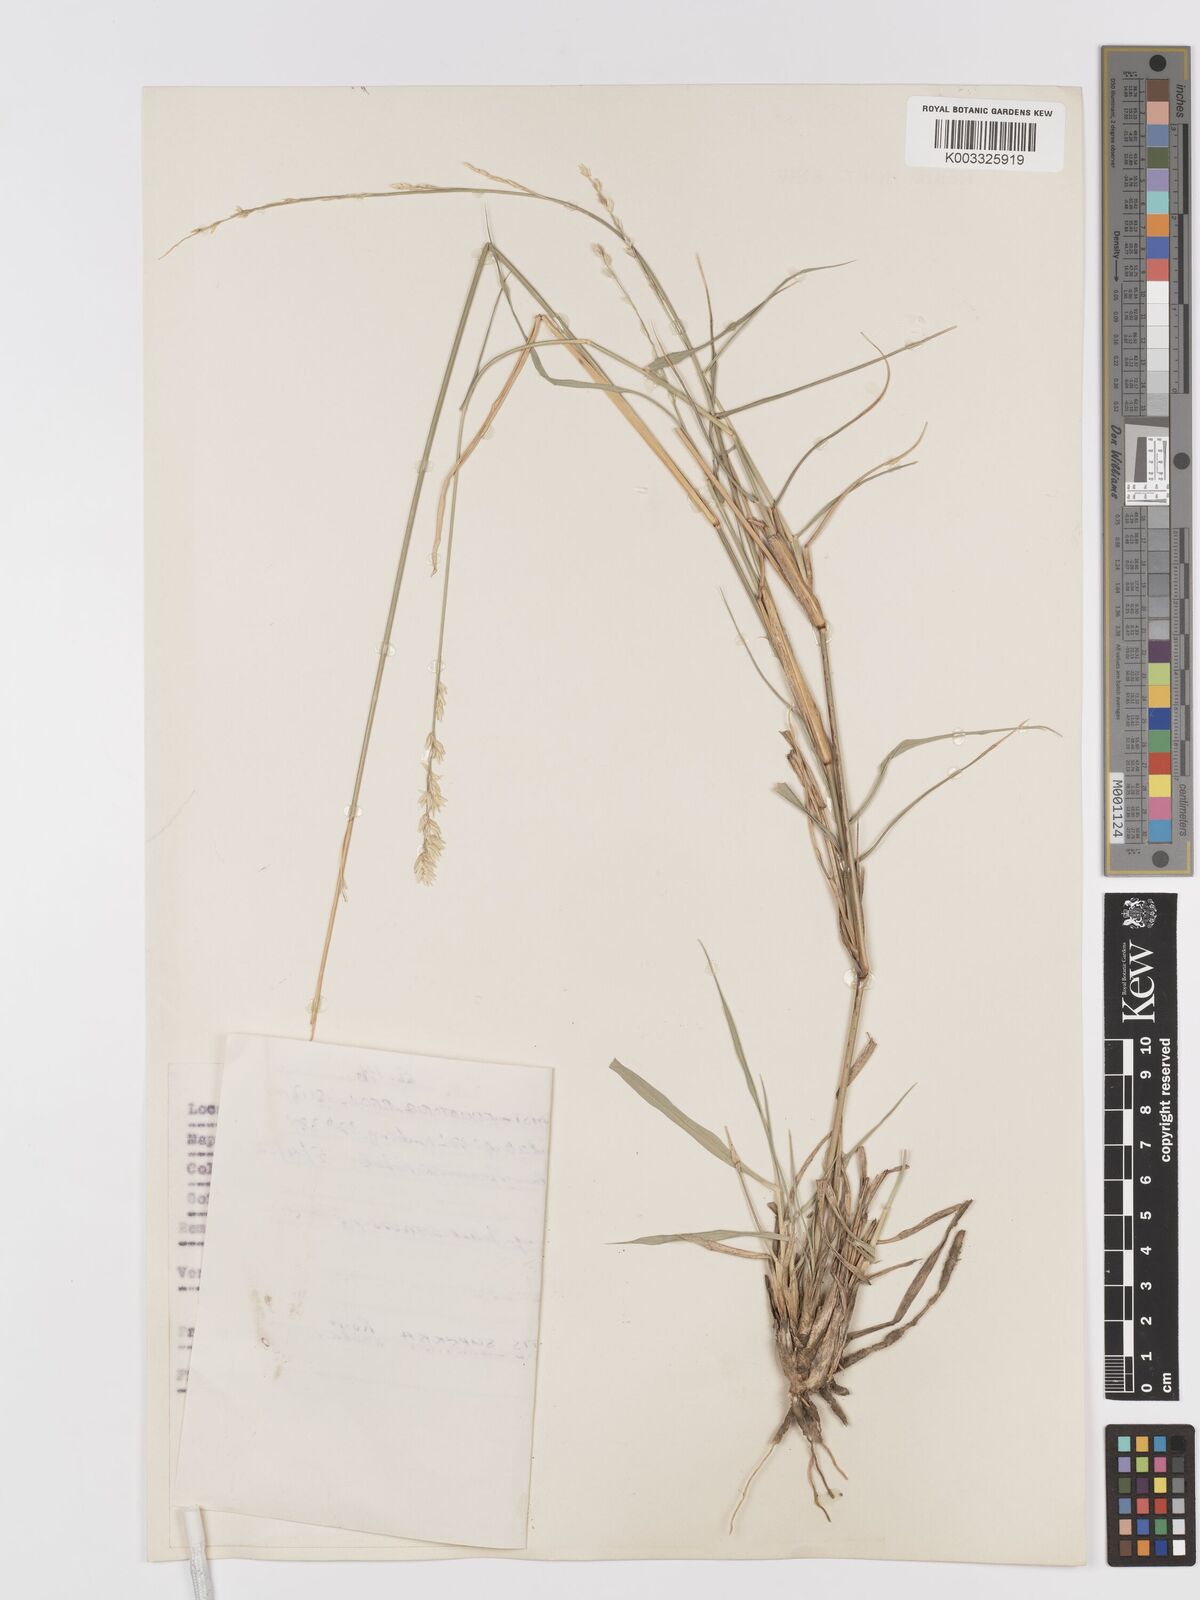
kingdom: Plantae
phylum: Tracheophyta
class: Liliopsida
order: Poales
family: Poaceae
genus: Eragrostis
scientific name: Eragrostis superba
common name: Wilman lovegrass
